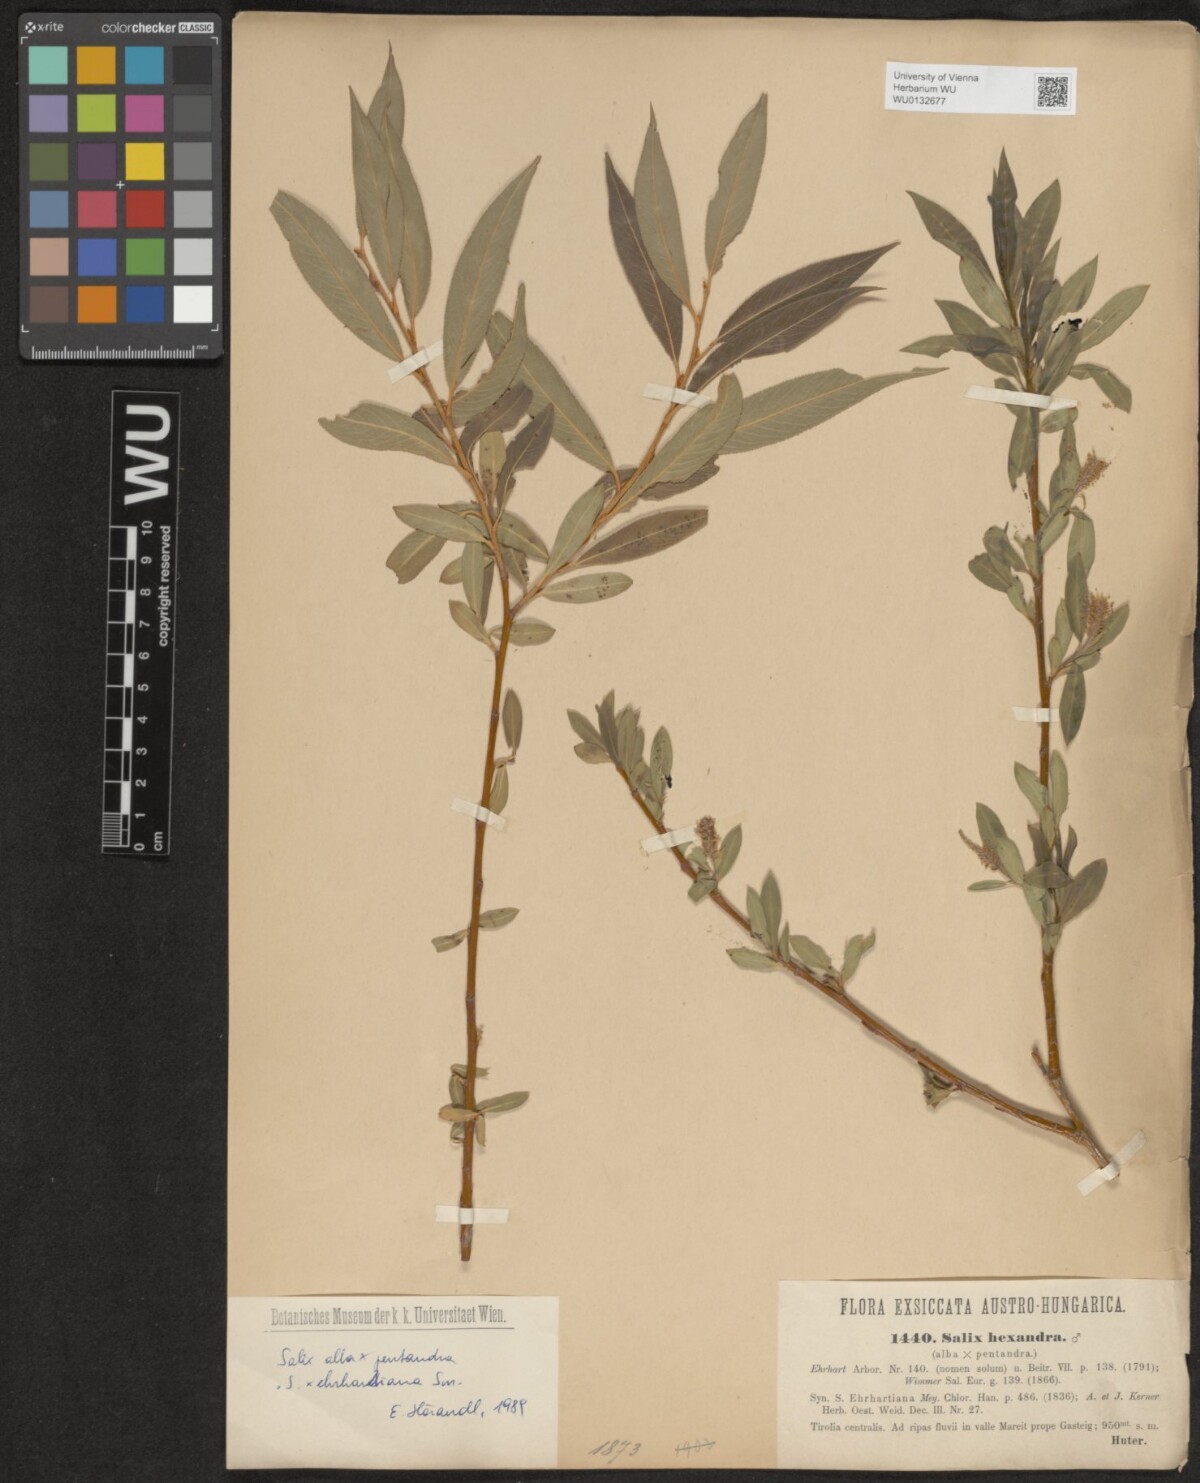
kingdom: Plantae
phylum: Tracheophyta
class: Magnoliopsida
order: Malpighiales
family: Salicaceae
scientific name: Salicaceae
